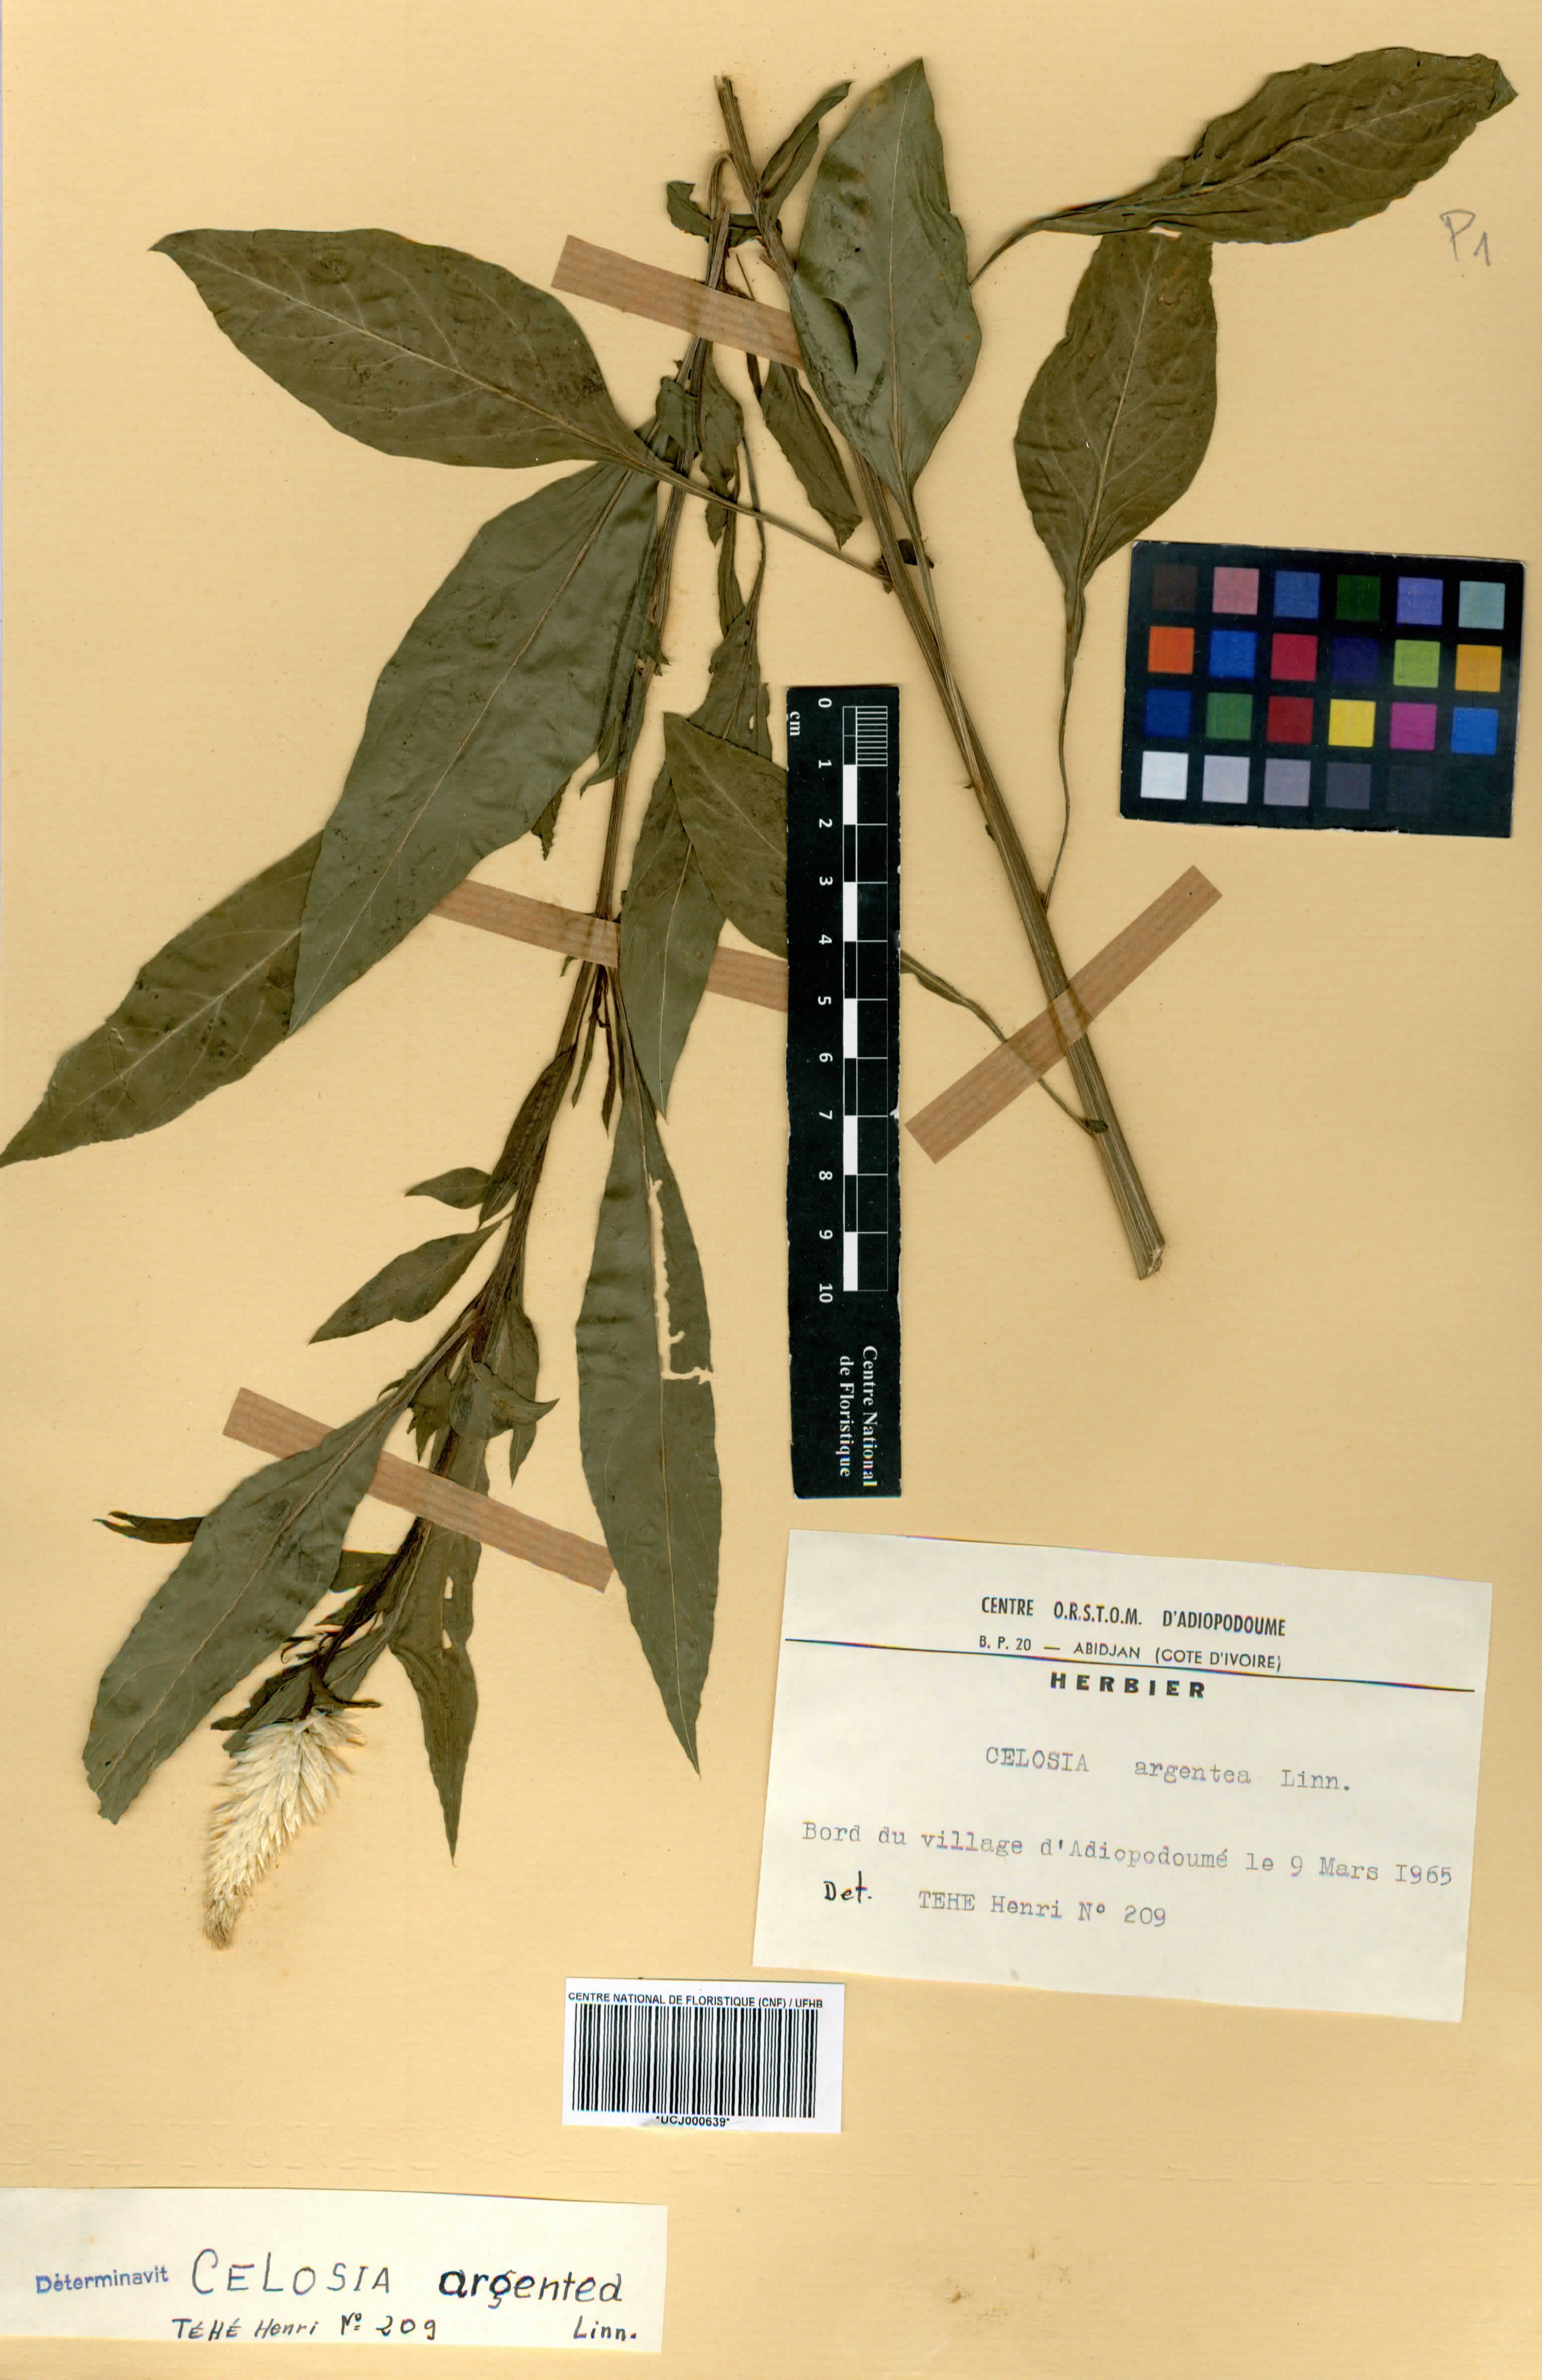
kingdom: Plantae
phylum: Tracheophyta
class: Magnoliopsida
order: Caryophyllales
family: Amaranthaceae
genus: Celosia
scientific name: Celosia argentea
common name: Feather cockscomb
